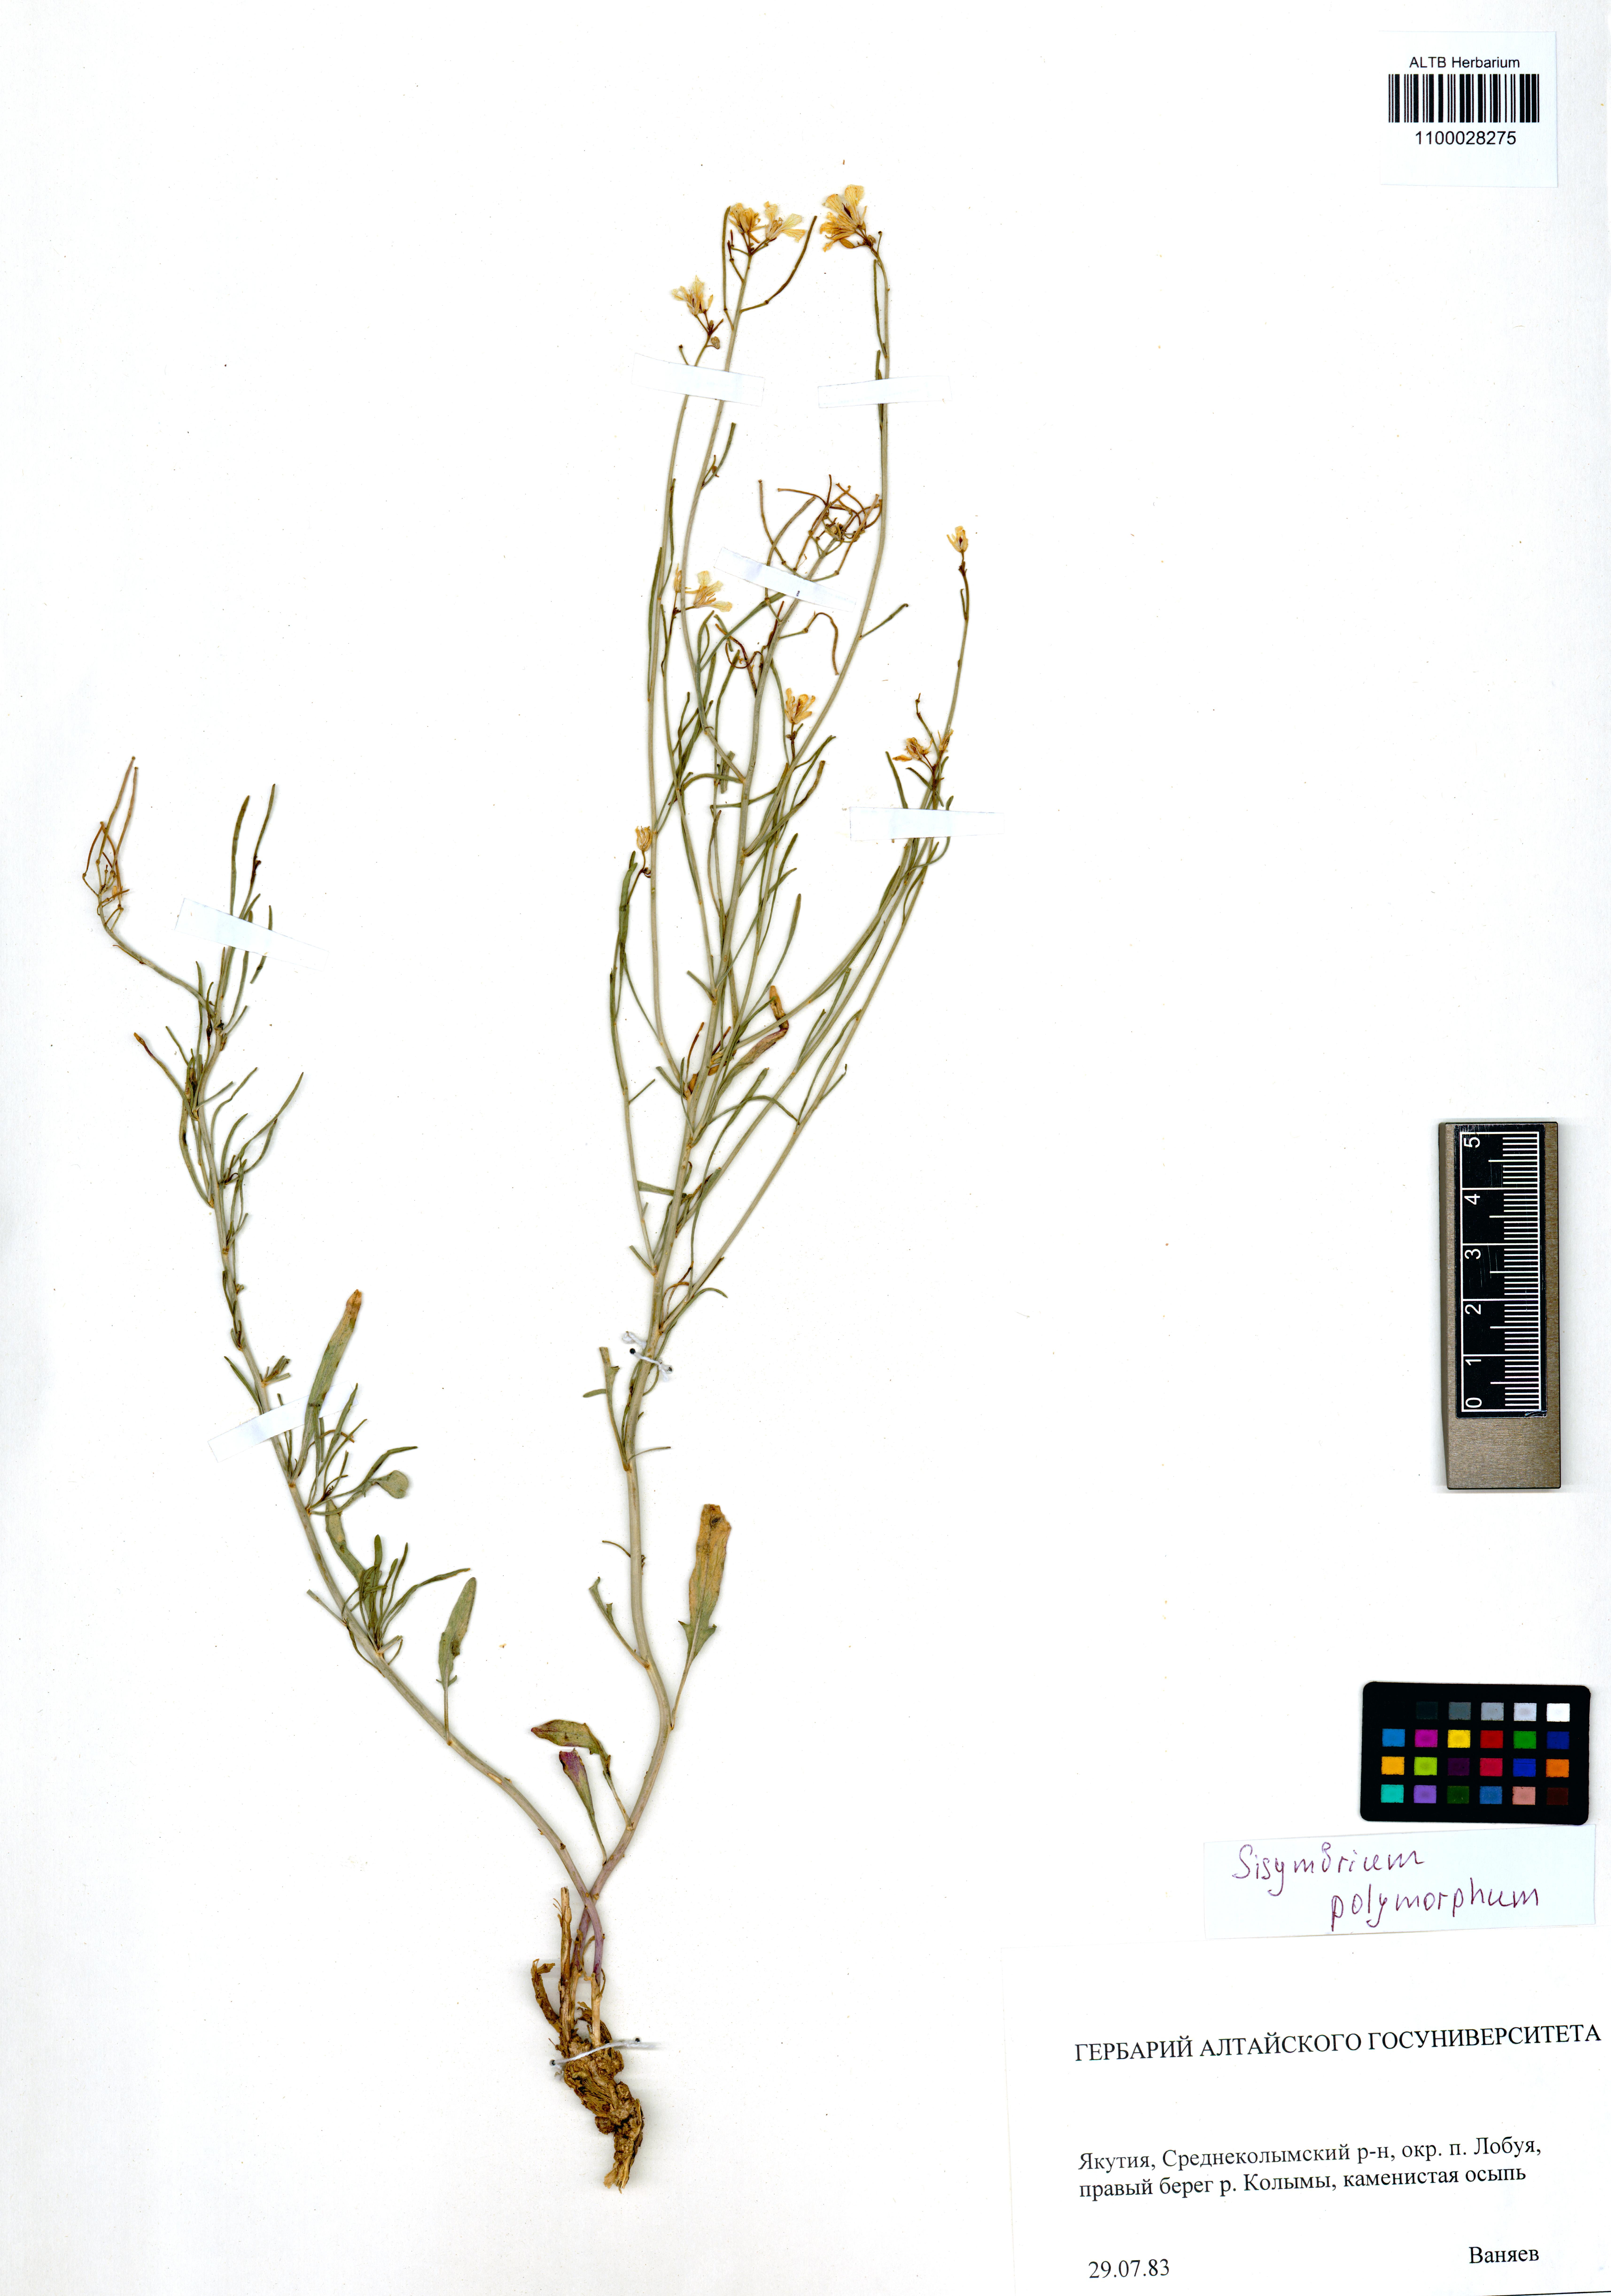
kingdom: Plantae
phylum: Tracheophyta
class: Magnoliopsida
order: Brassicales
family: Brassicaceae
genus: Sisymbrium
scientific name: Sisymbrium polymorphum
